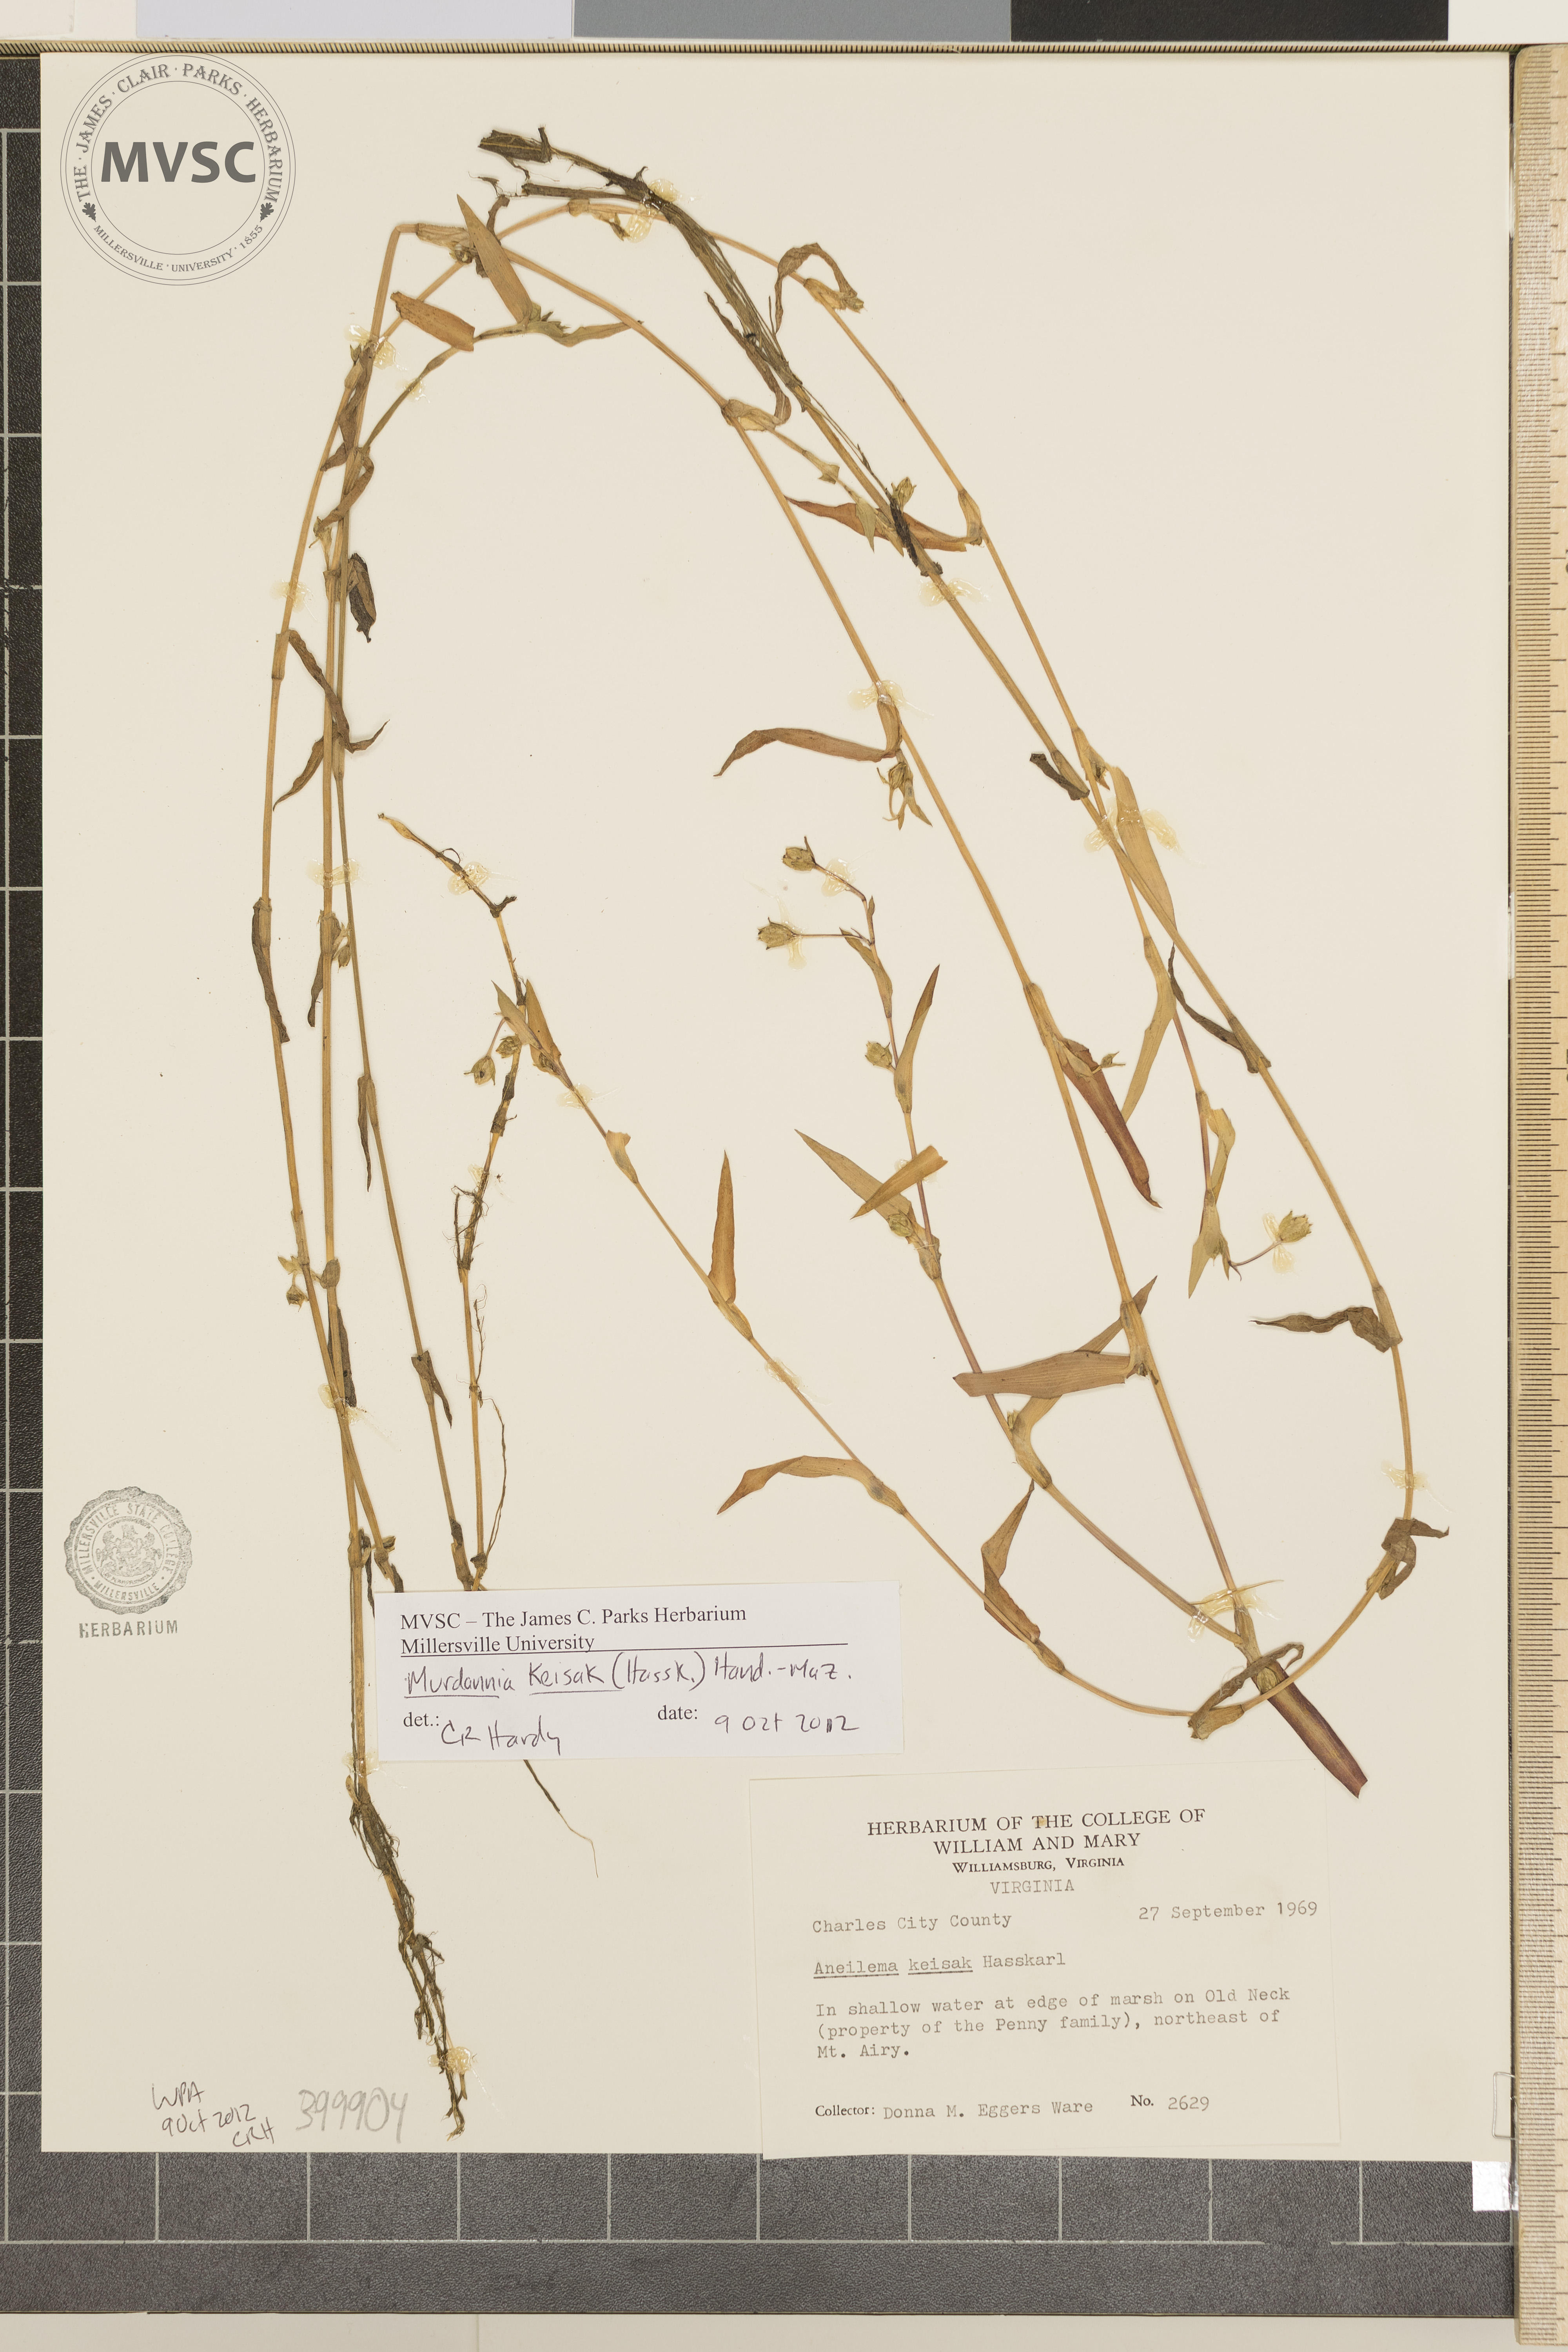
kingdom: Plantae
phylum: Tracheophyta
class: Liliopsida
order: Commelinales
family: Commelinaceae
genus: Murdannia
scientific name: Murdannia keisak
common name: wartremoving herb
